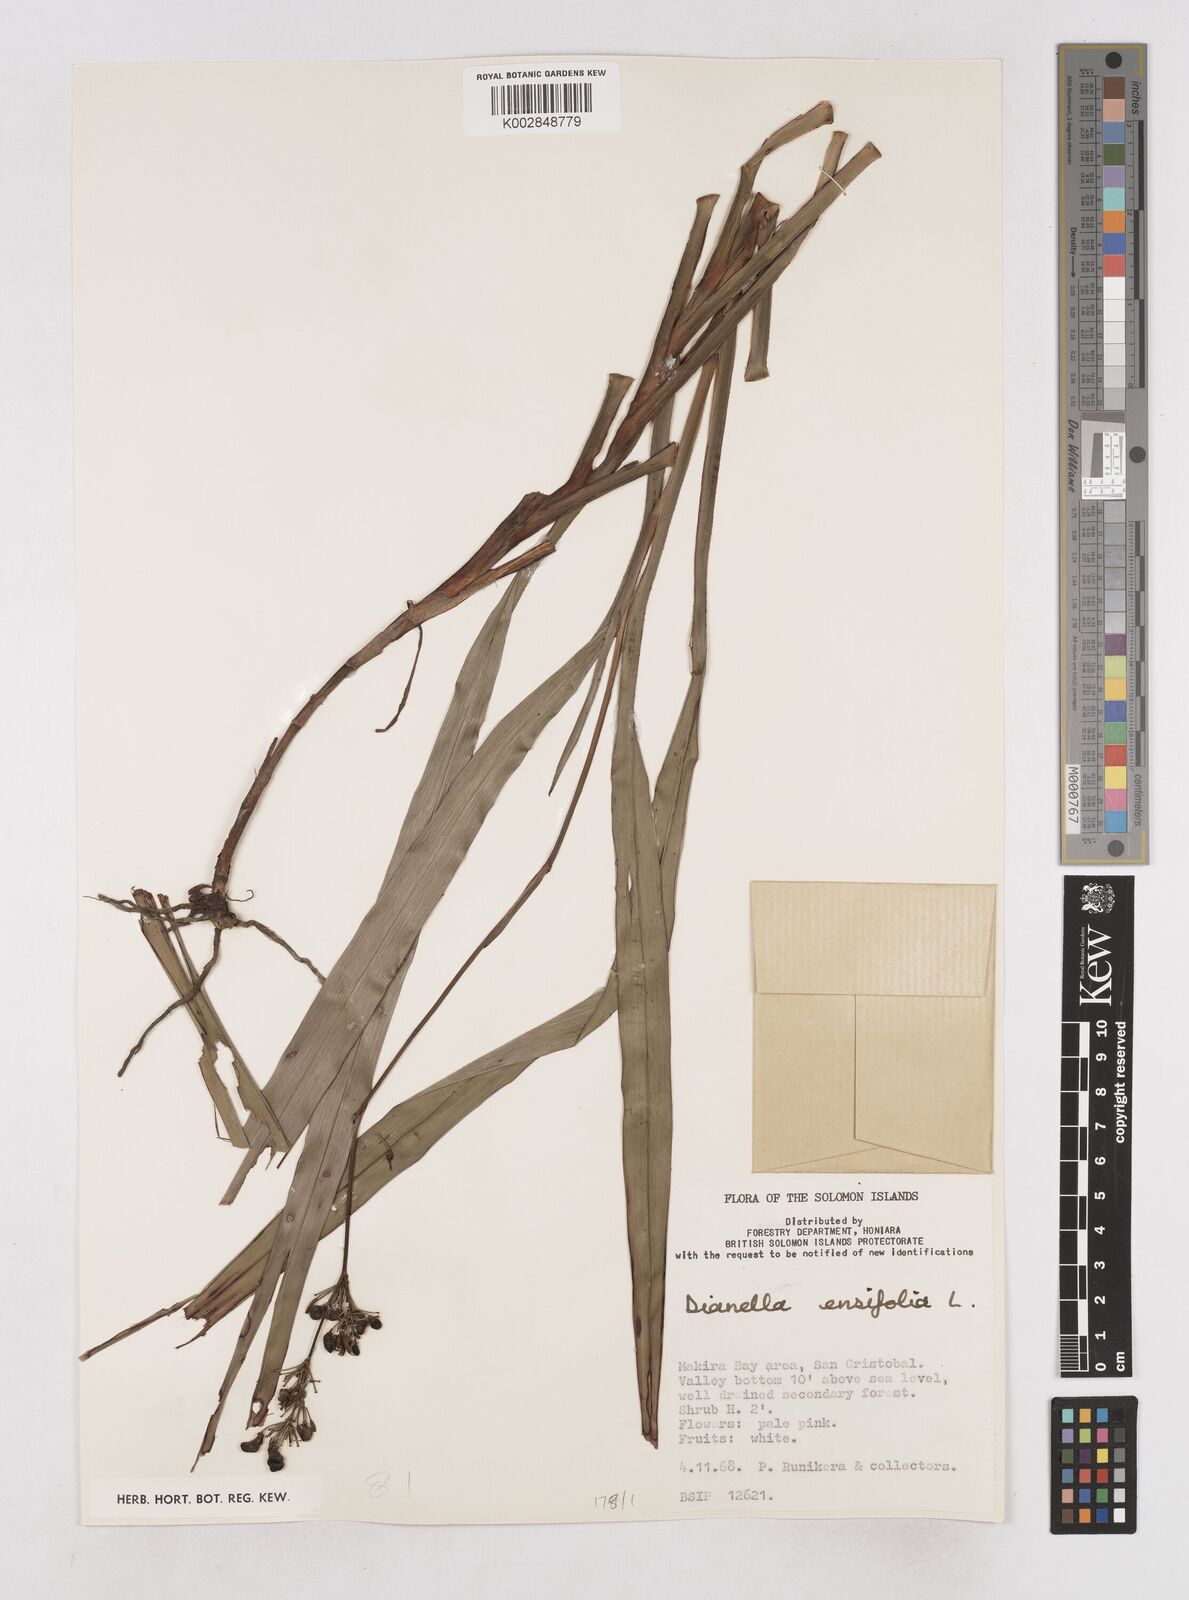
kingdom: Plantae
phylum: Tracheophyta
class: Liliopsida
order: Asparagales
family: Asphodelaceae
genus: Dianella
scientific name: Dianella ensifolia
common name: New zealand lilyplant
